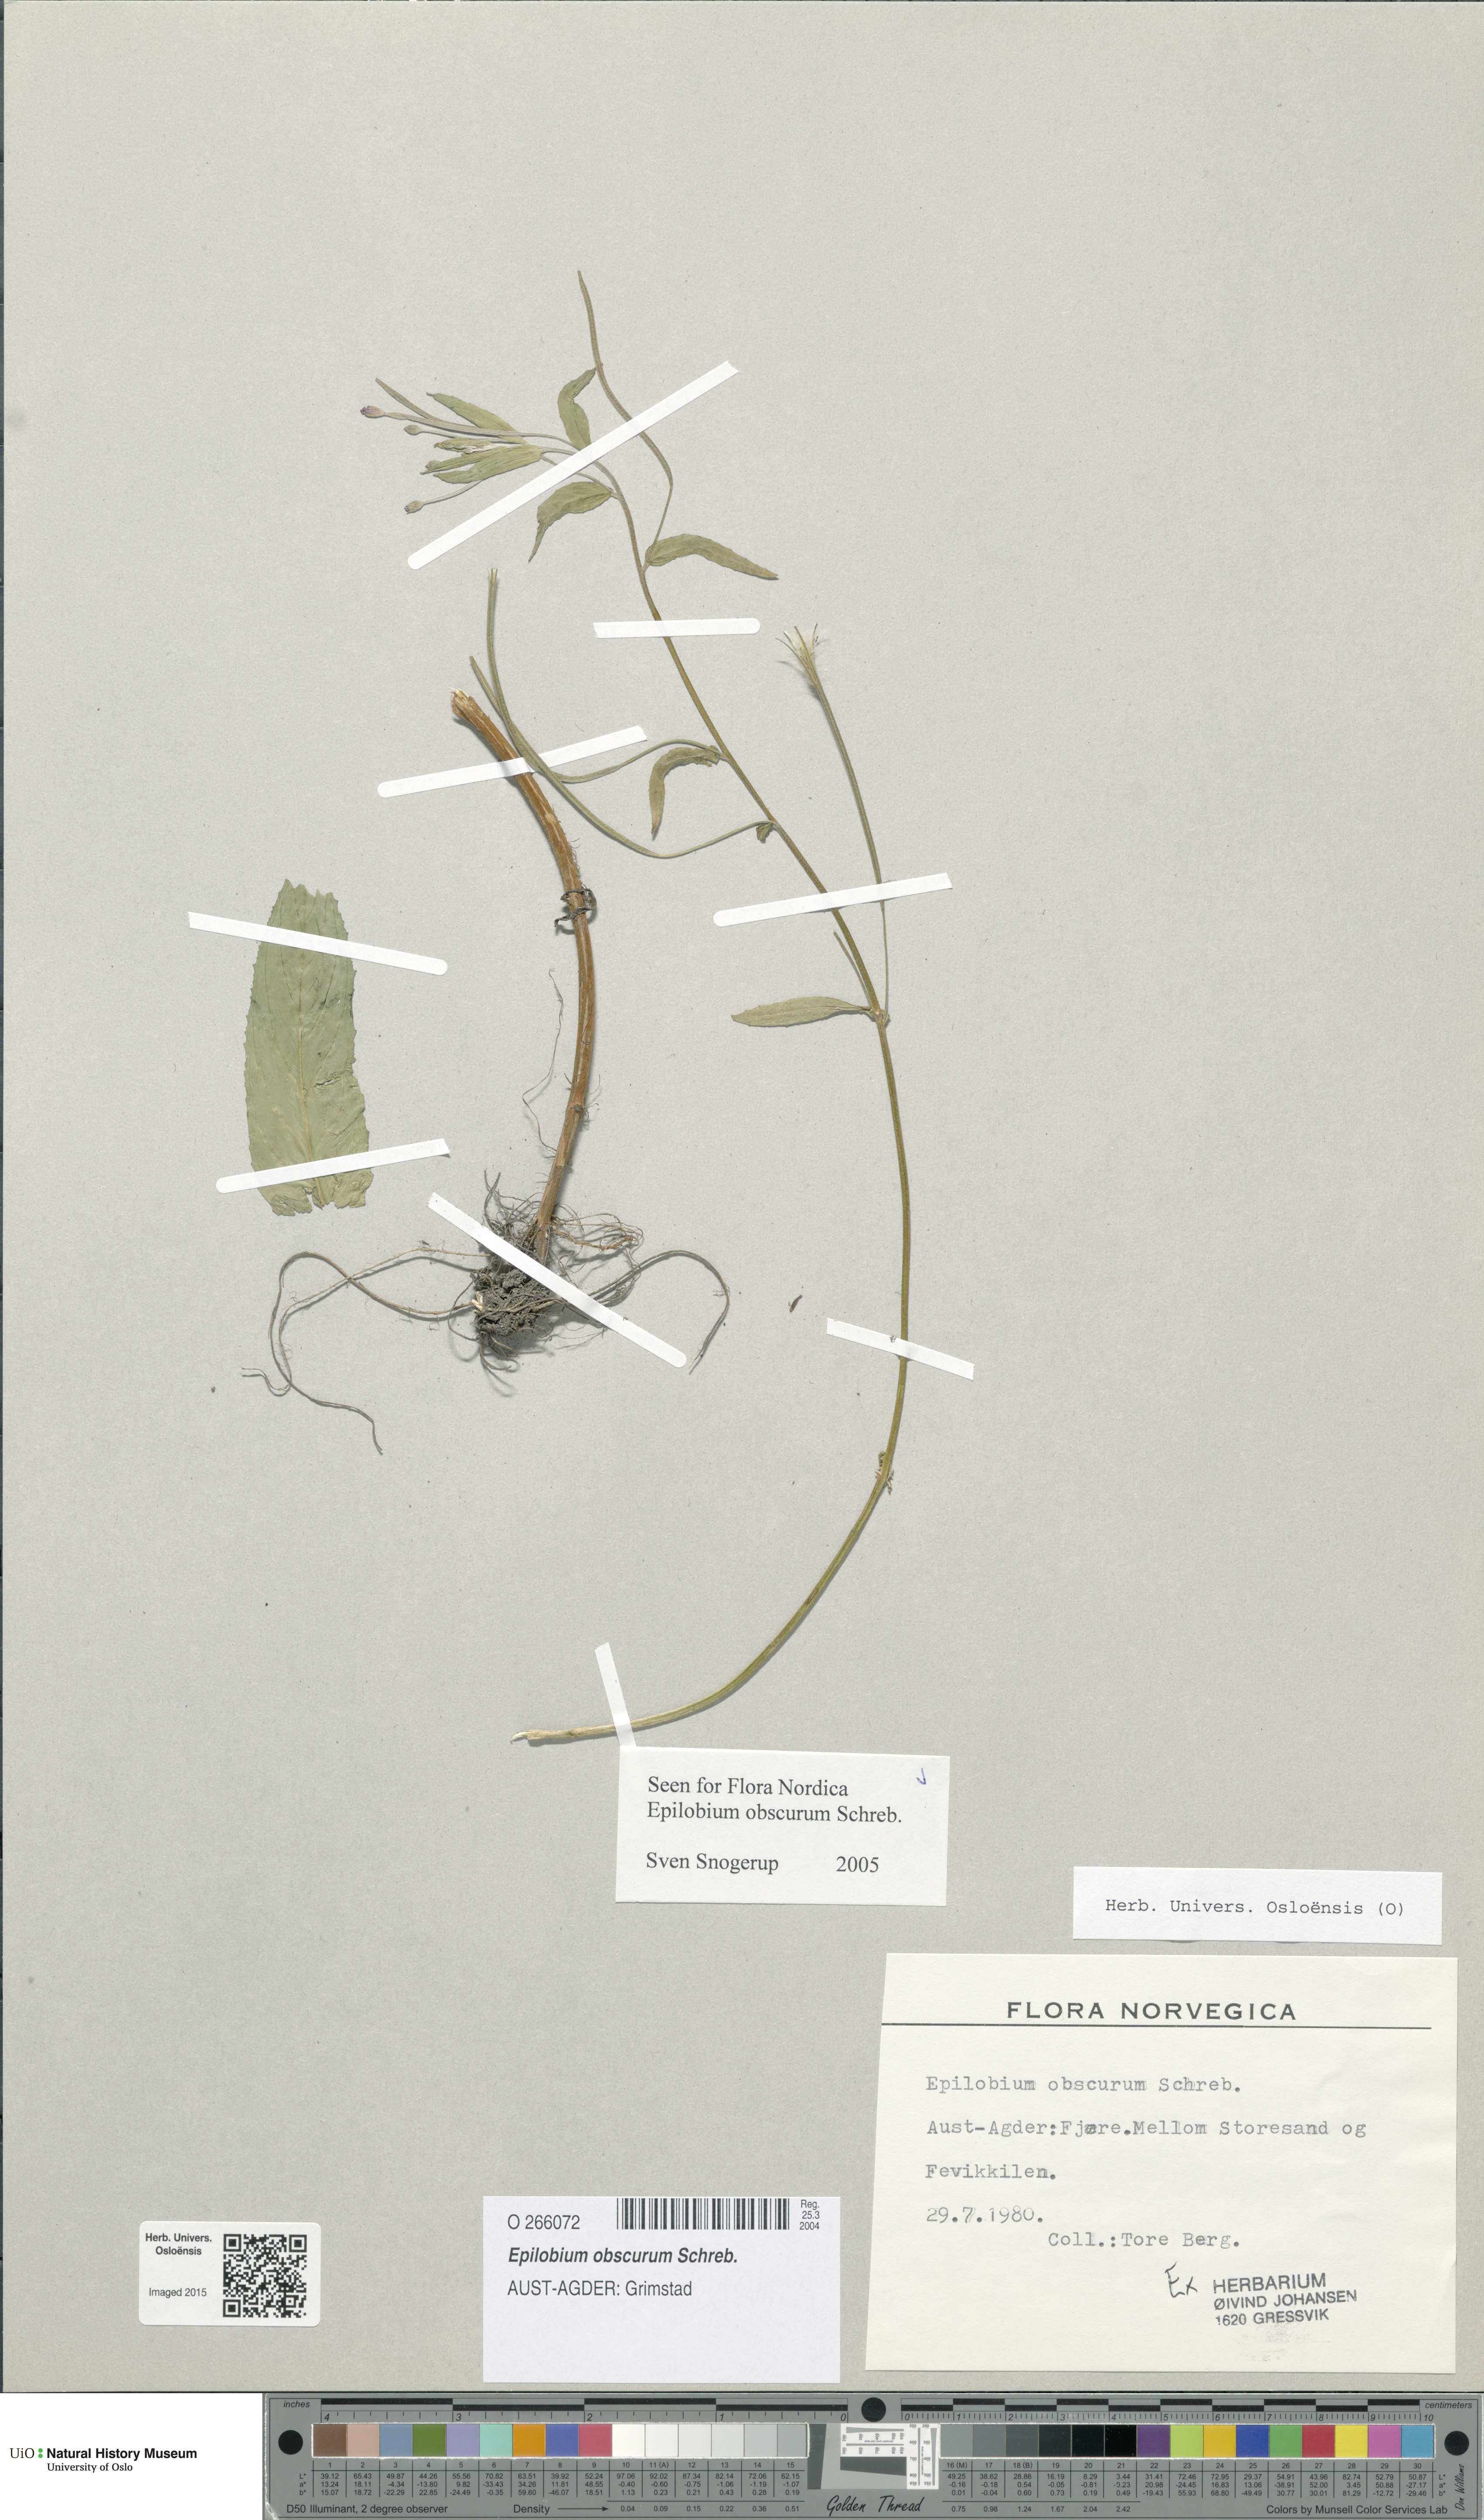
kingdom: Plantae
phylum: Tracheophyta
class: Magnoliopsida
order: Myrtales
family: Onagraceae
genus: Epilobium
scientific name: Epilobium obscurum
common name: Short-fruited willowherb
